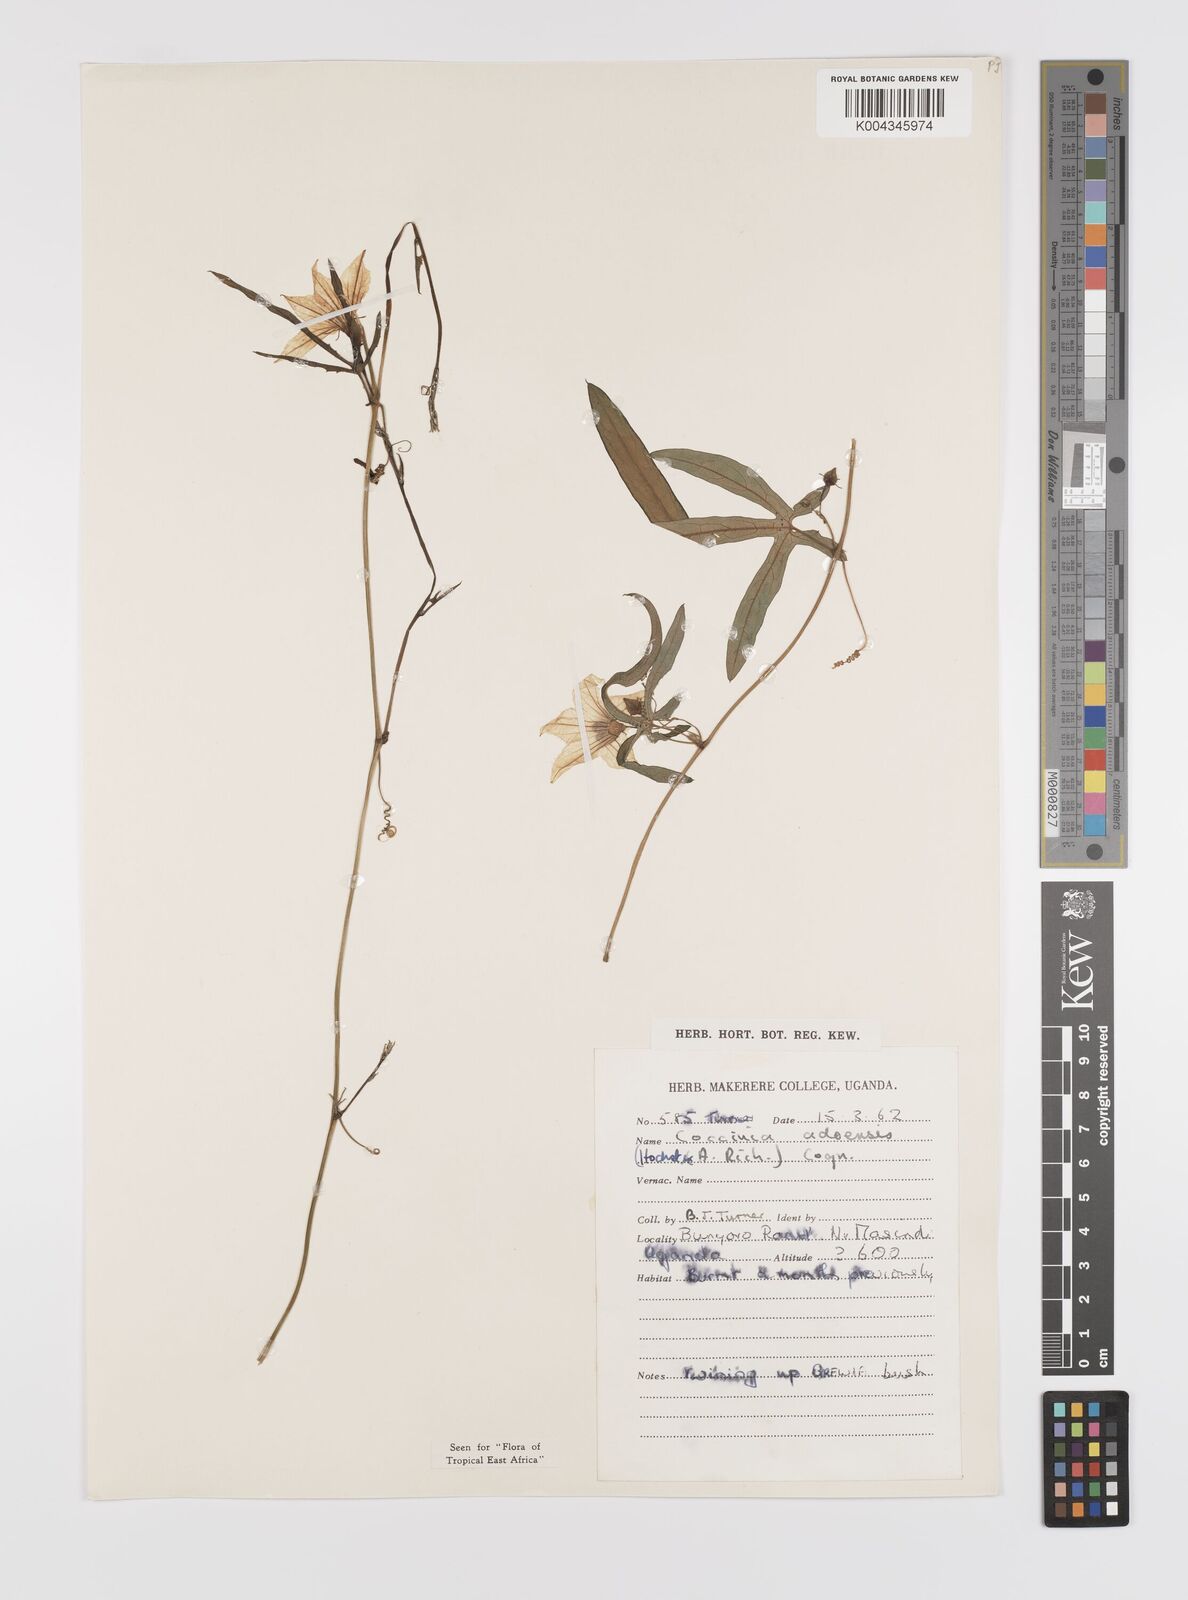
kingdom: Plantae
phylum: Tracheophyta
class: Magnoliopsida
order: Cucurbitales
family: Cucurbitaceae
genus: Coccinia
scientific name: Coccinia adoensis
